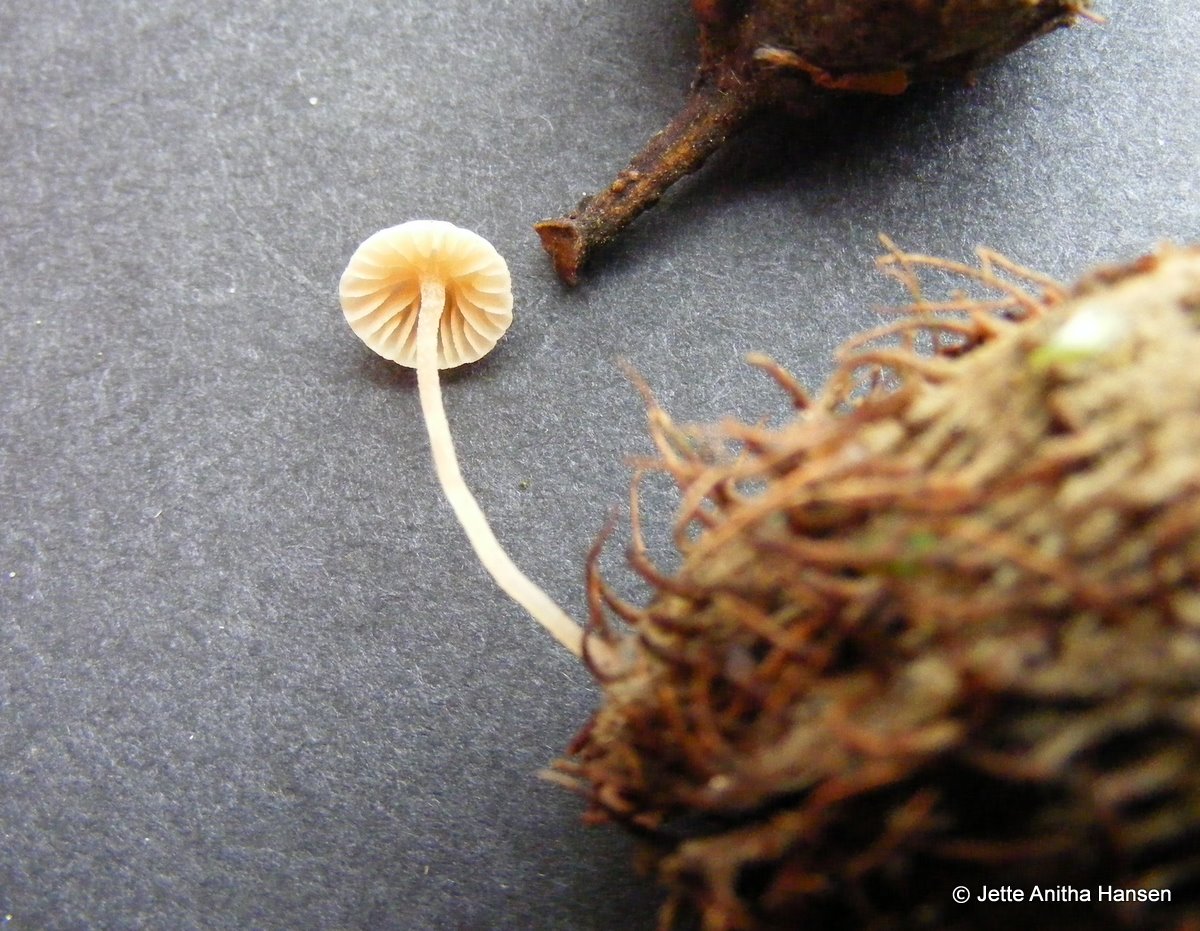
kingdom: Fungi
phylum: Basidiomycota
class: Agaricomycetes
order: Agaricales
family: Tubariaceae
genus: Flammulaster
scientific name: Flammulaster carpophilus
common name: blegrosa grynskælhat
